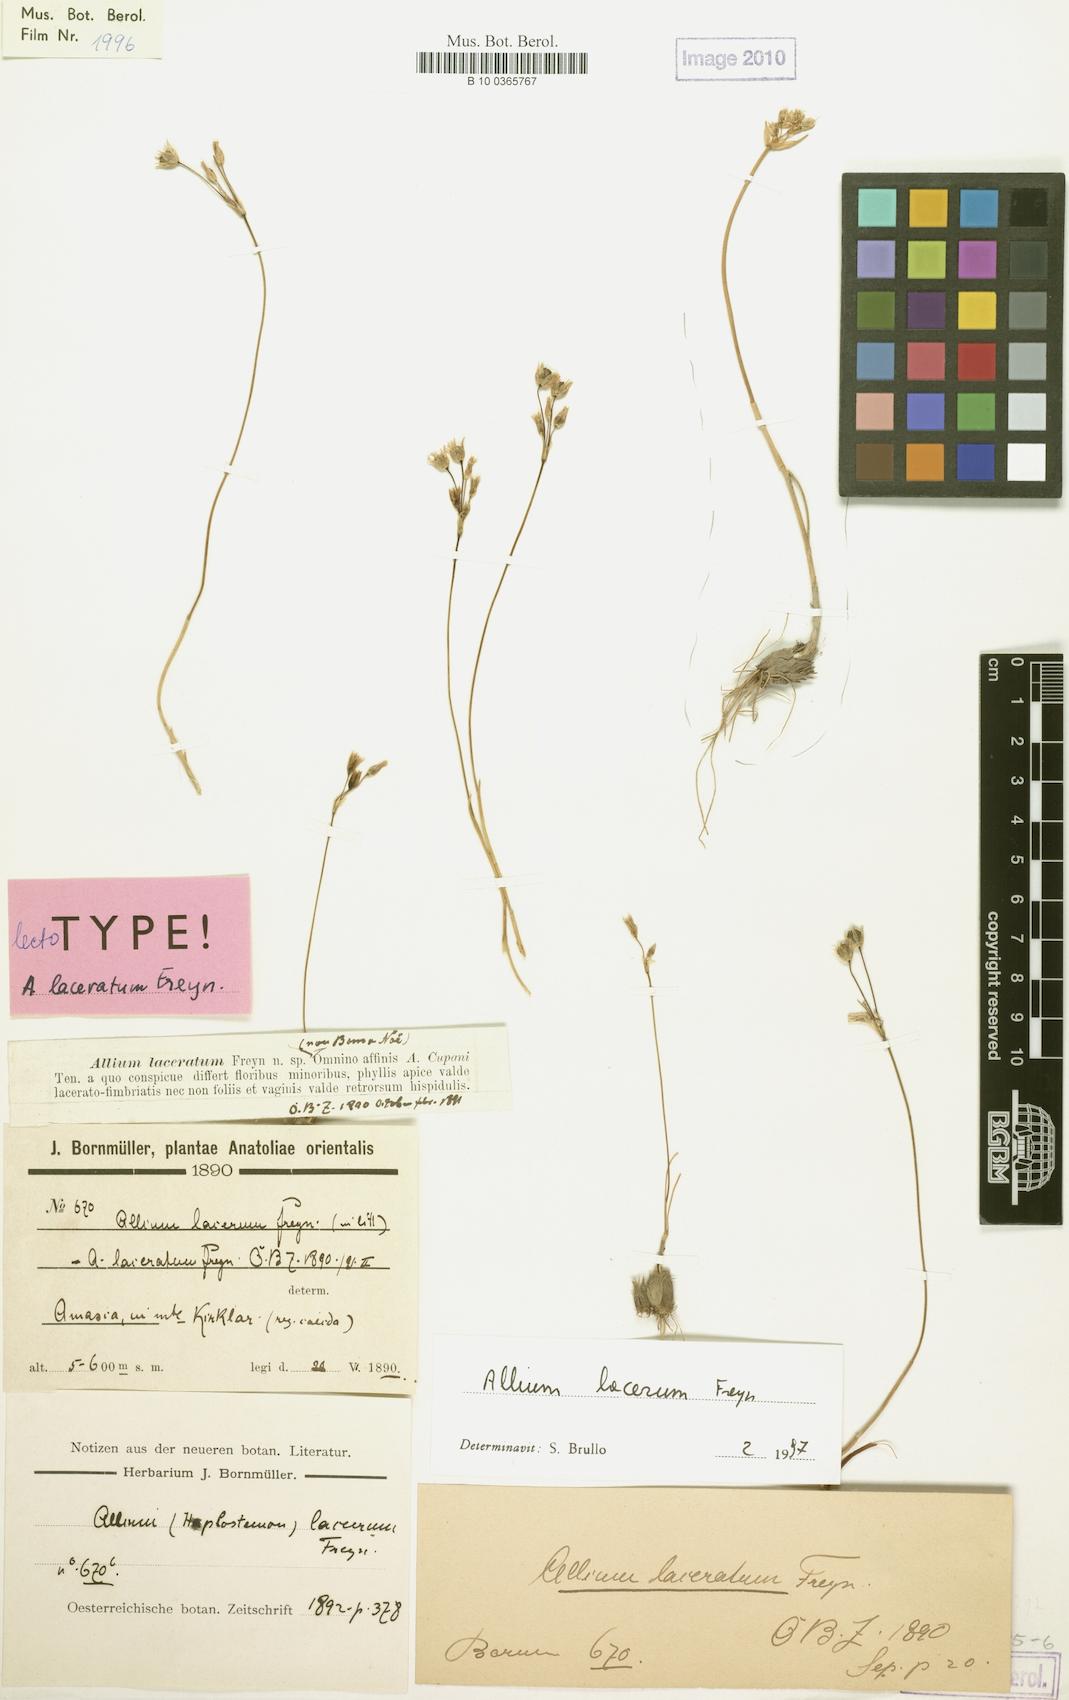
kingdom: Plantae
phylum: Tracheophyta
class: Liliopsida
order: Asparagales
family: Amaryllidaceae
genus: Allium
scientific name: Allium callidyction
